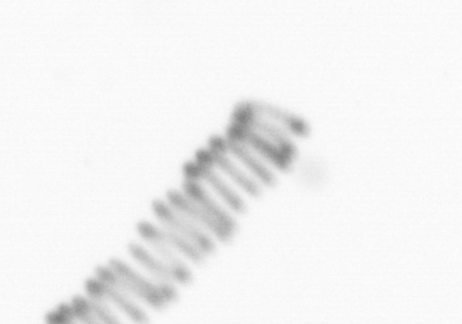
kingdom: Chromista
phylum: Ochrophyta
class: Bacillariophyceae
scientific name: Bacillariophyceae
